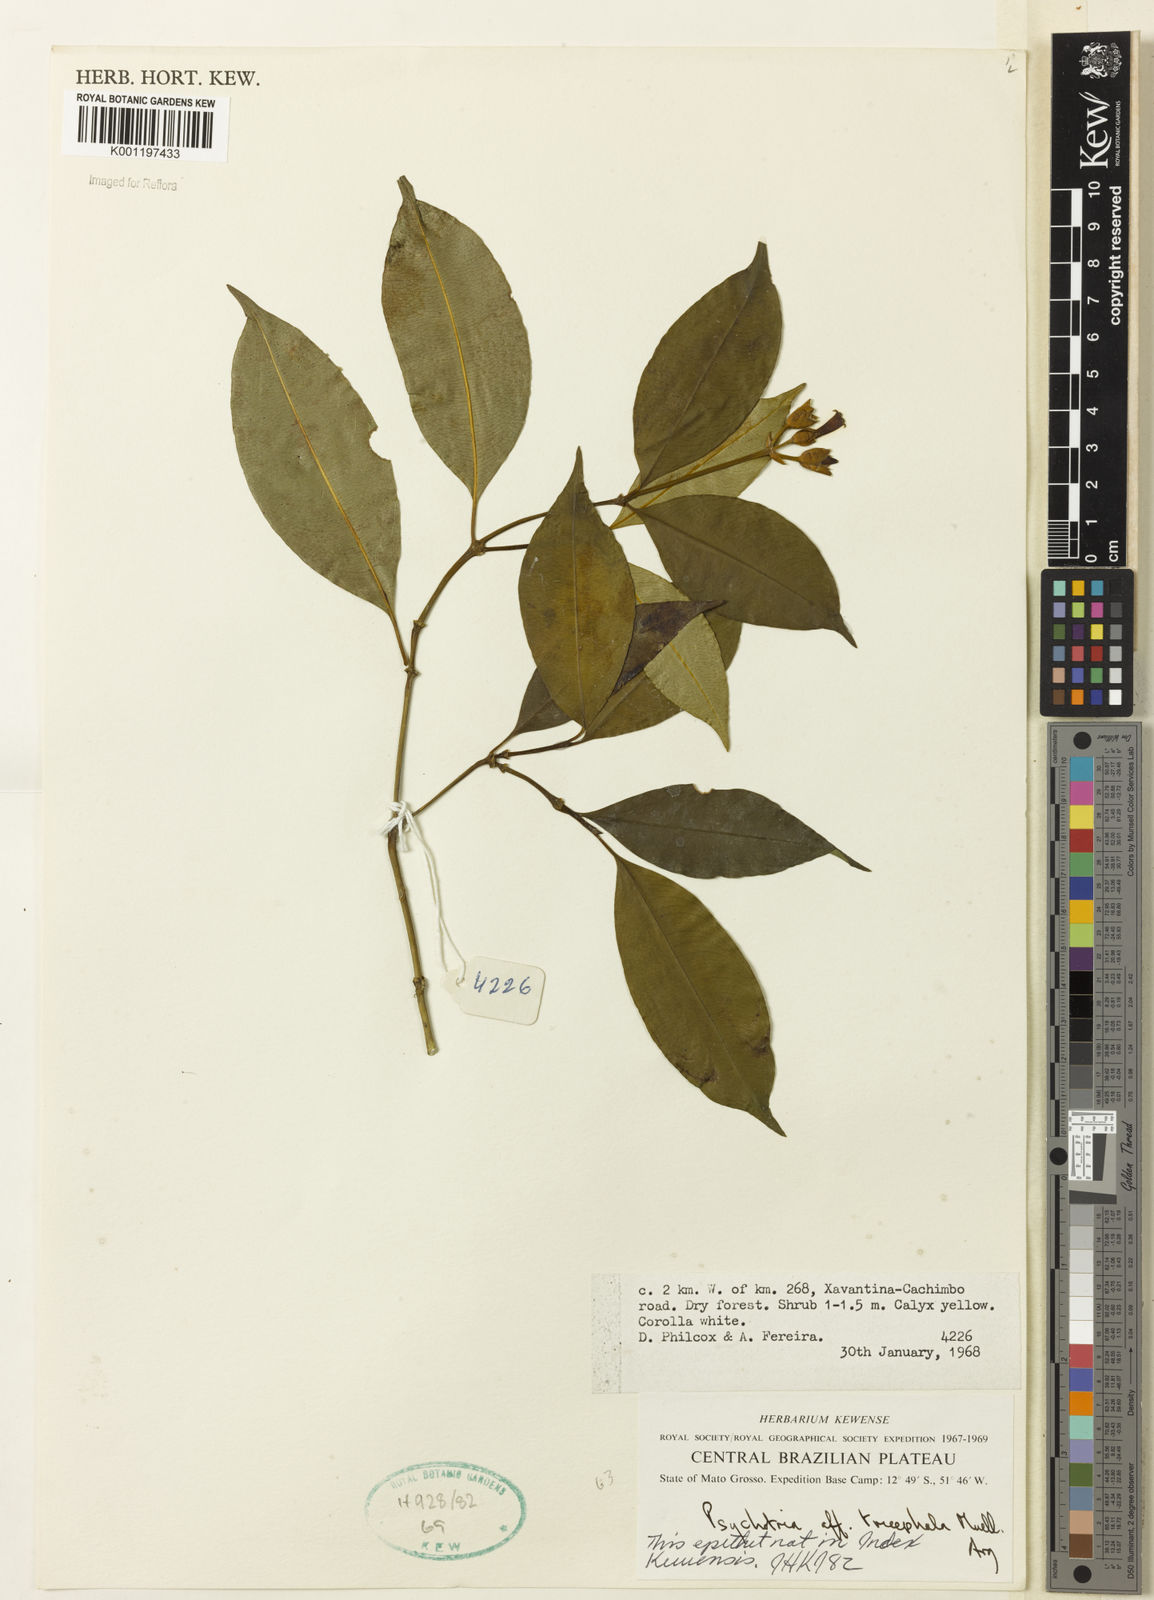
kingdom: Plantae
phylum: Tracheophyta
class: Magnoliopsida
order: Gentianales
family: Rubiaceae
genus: Psychotria
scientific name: Psychotria
